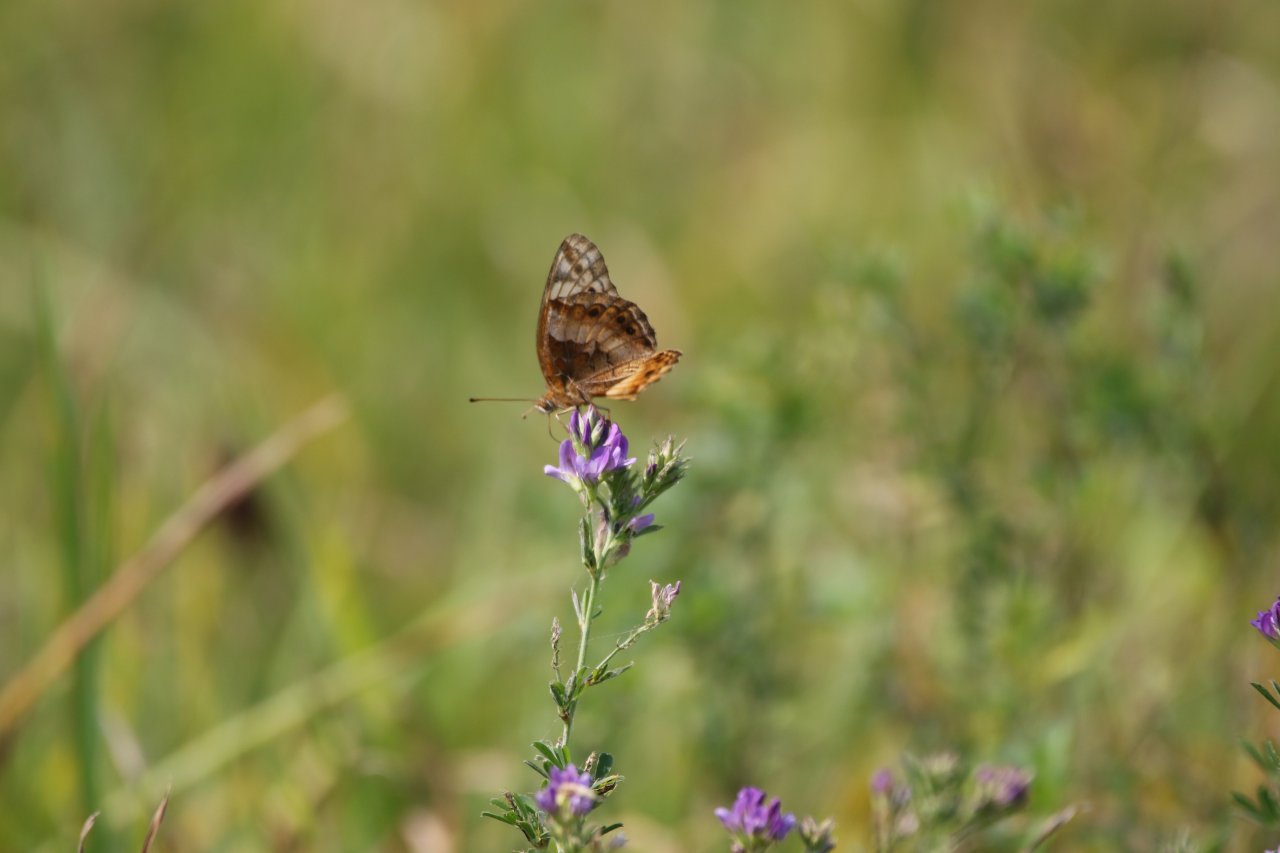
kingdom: Animalia
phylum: Arthropoda
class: Insecta
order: Lepidoptera
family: Nymphalidae
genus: Euptoieta
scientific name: Euptoieta claudia
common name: Variegated Fritillary
